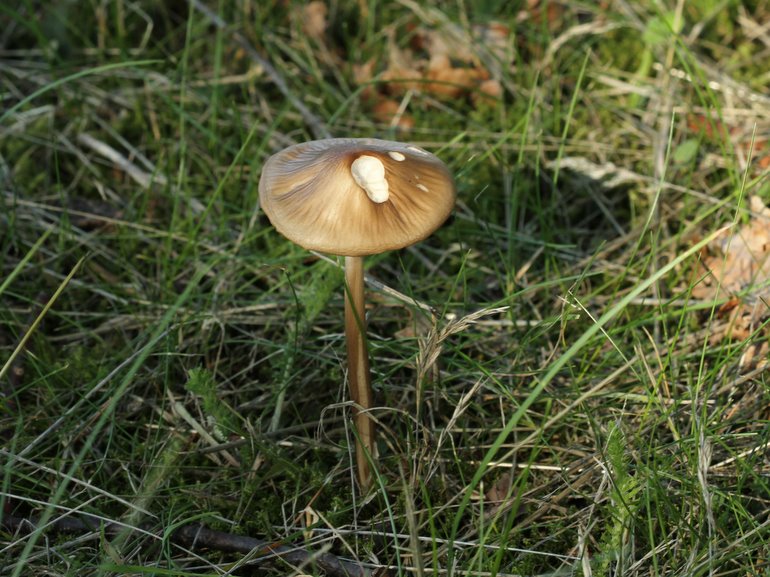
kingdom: Fungi
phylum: Basidiomycota
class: Agaricomycetes
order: Agaricales
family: Physalacriaceae
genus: Hymenopellis
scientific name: Hymenopellis radicata
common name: almindelig pælerodshat
